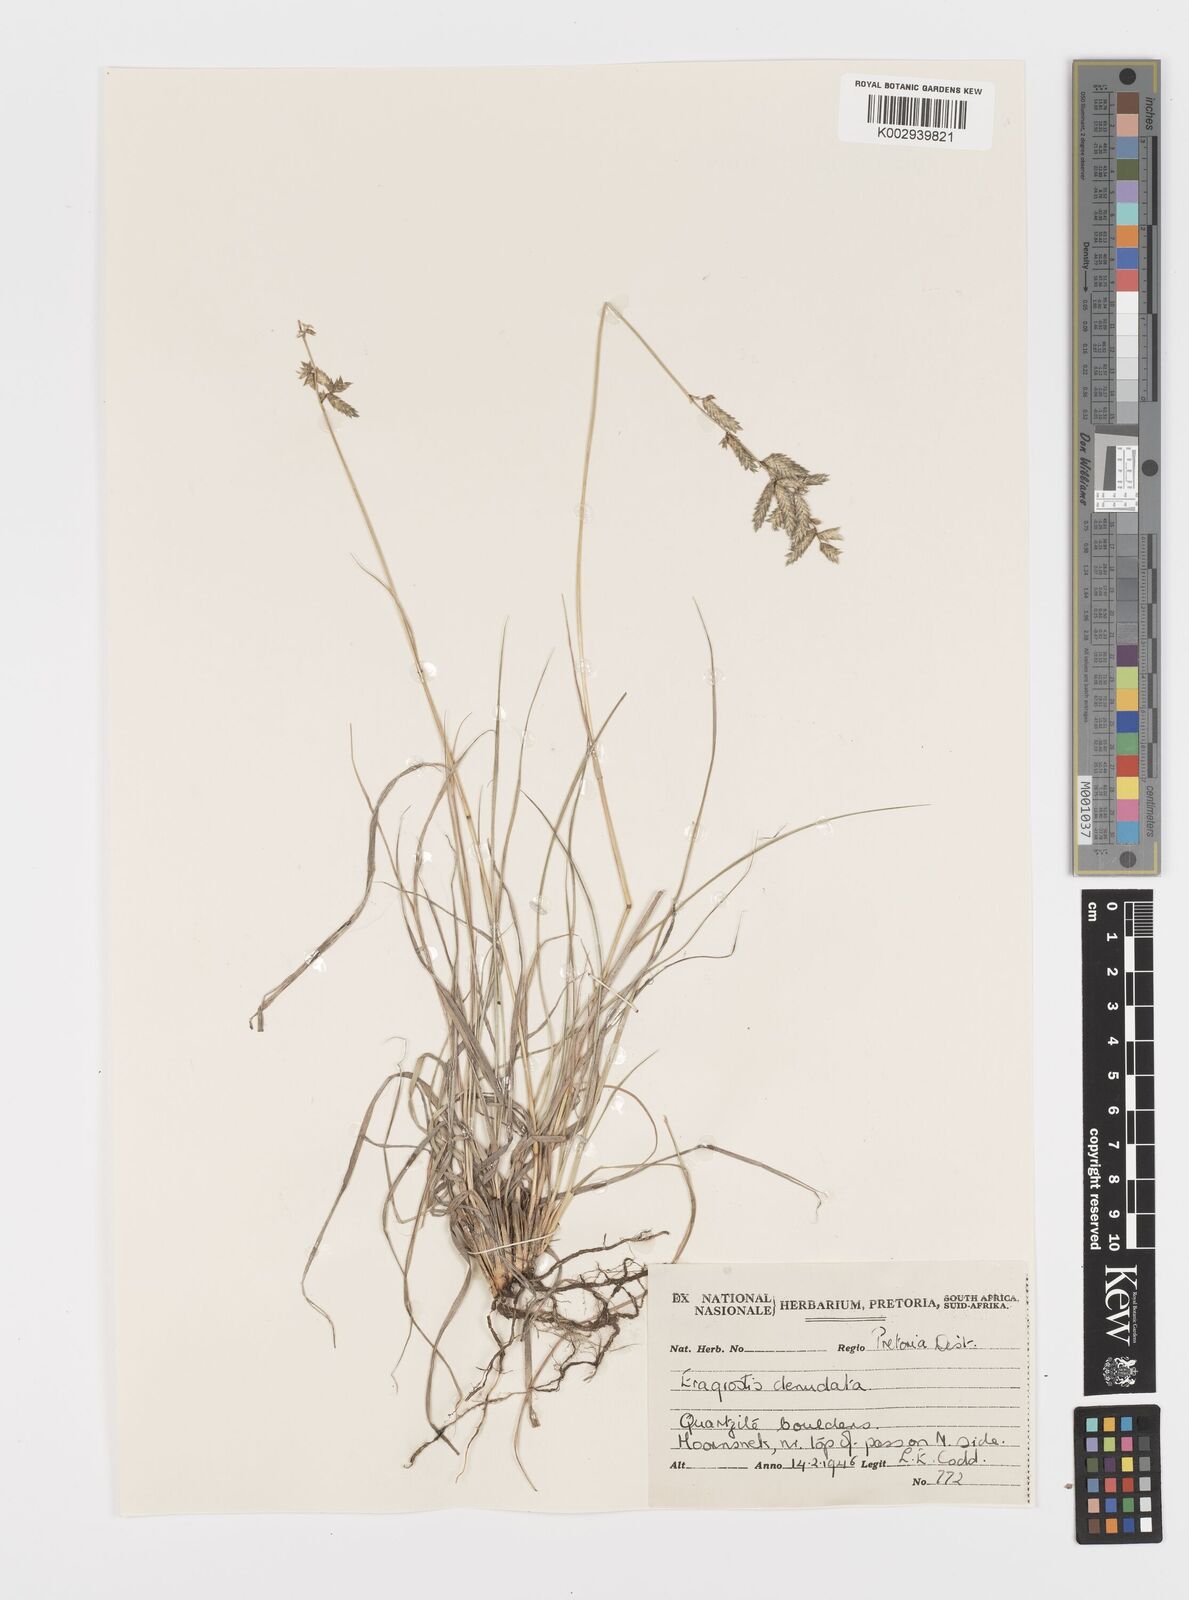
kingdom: Plantae
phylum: Tracheophyta
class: Liliopsida
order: Poales
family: Poaceae
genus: Eragrostis
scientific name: Eragrostis nindensis
